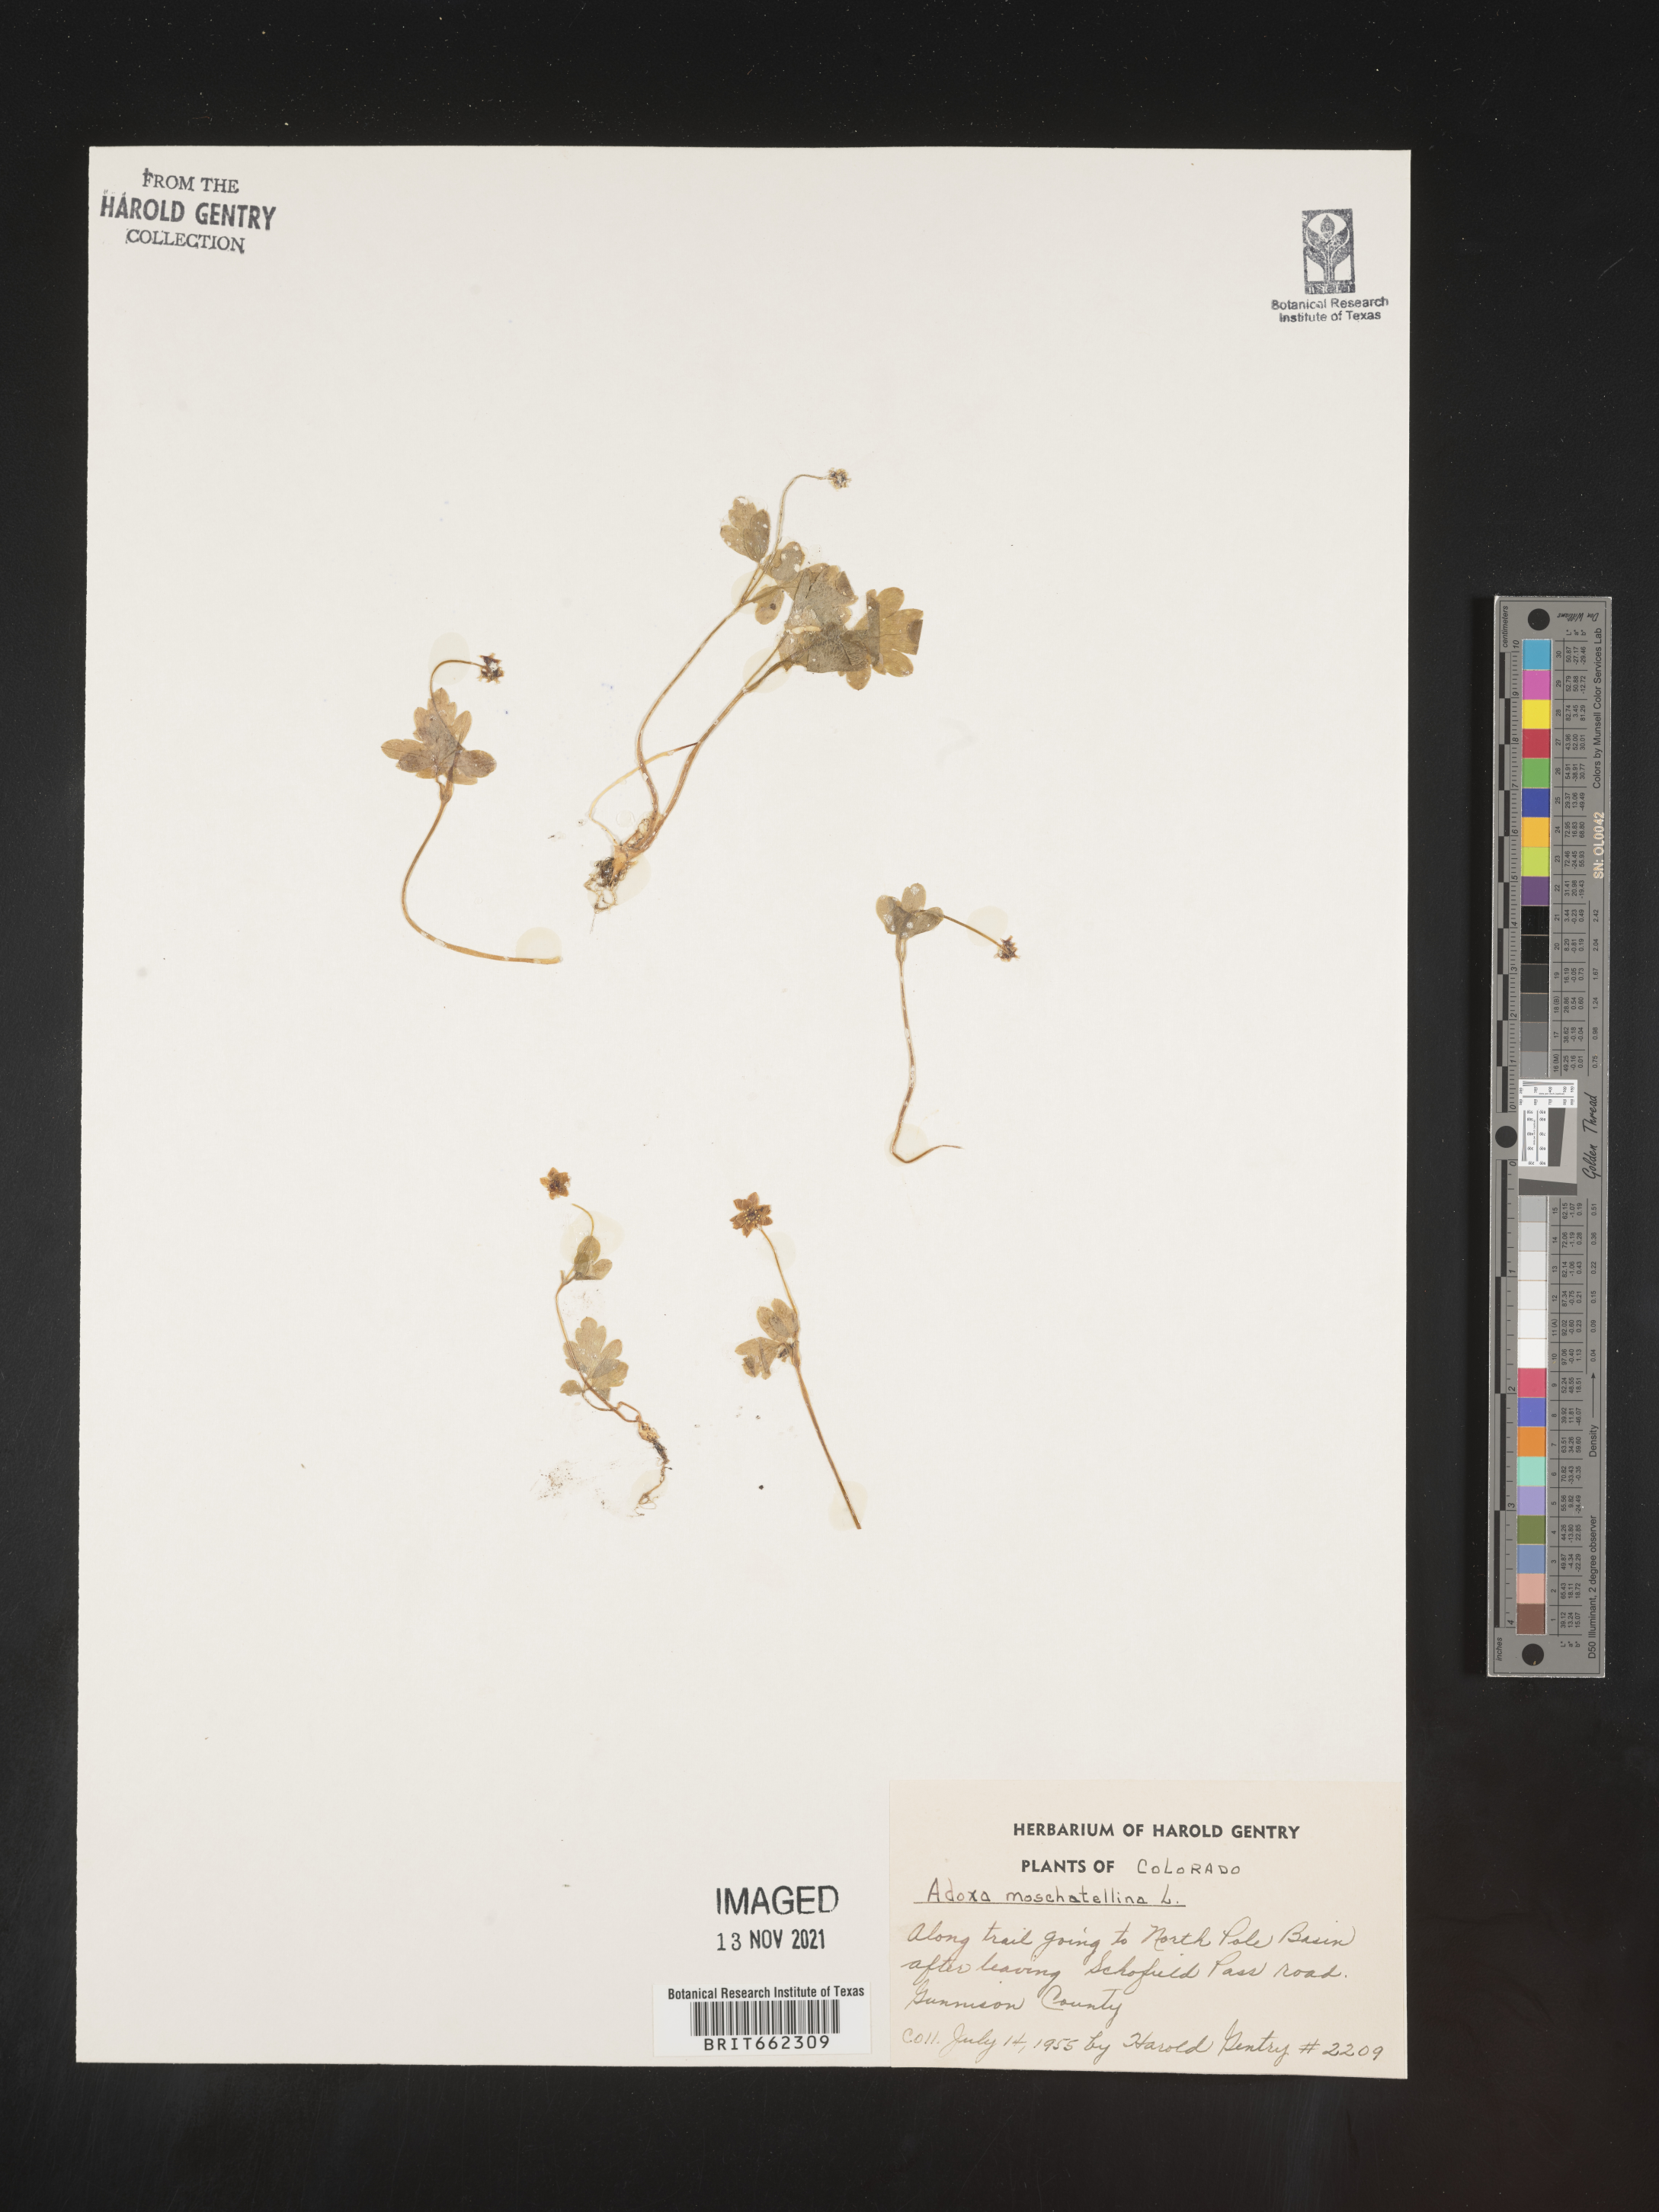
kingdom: Plantae
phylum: Tracheophyta
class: Magnoliopsida
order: Dipsacales
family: Viburnaceae
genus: Adoxa
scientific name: Adoxa
